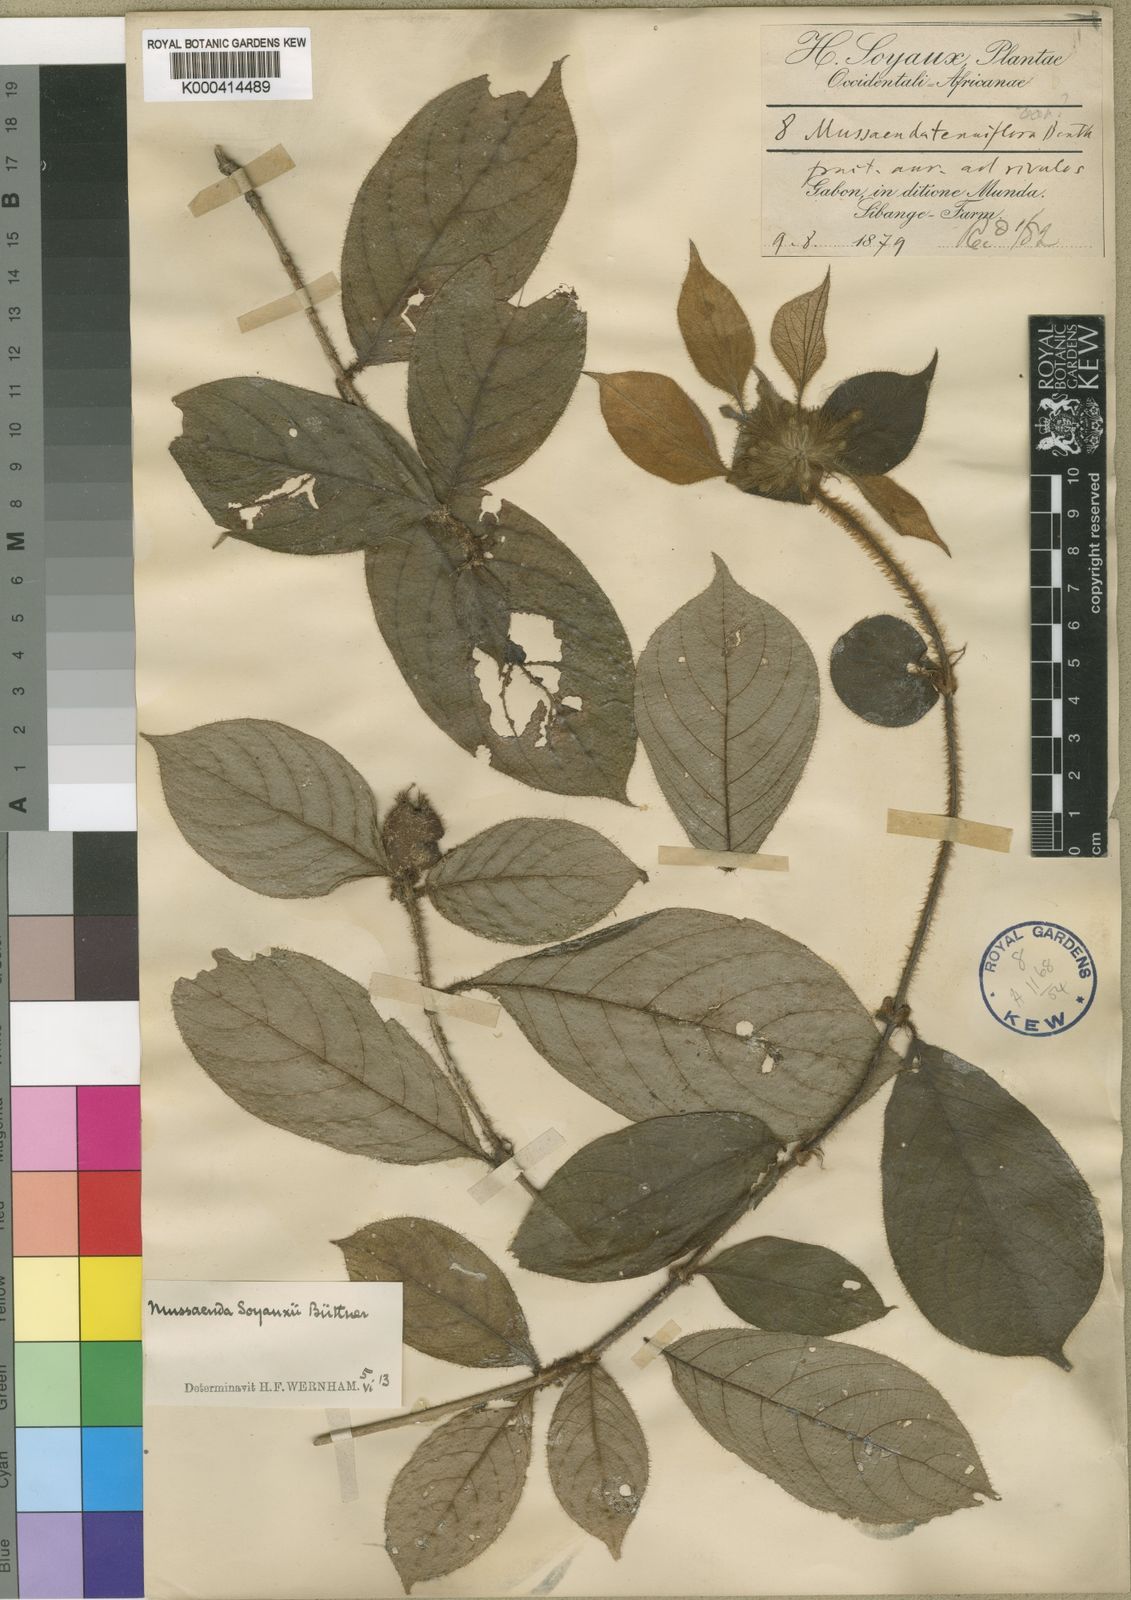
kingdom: Plantae
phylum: Tracheophyta
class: Magnoliopsida
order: Gentianales
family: Rubiaceae
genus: Mussaenda
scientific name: Mussaenda
